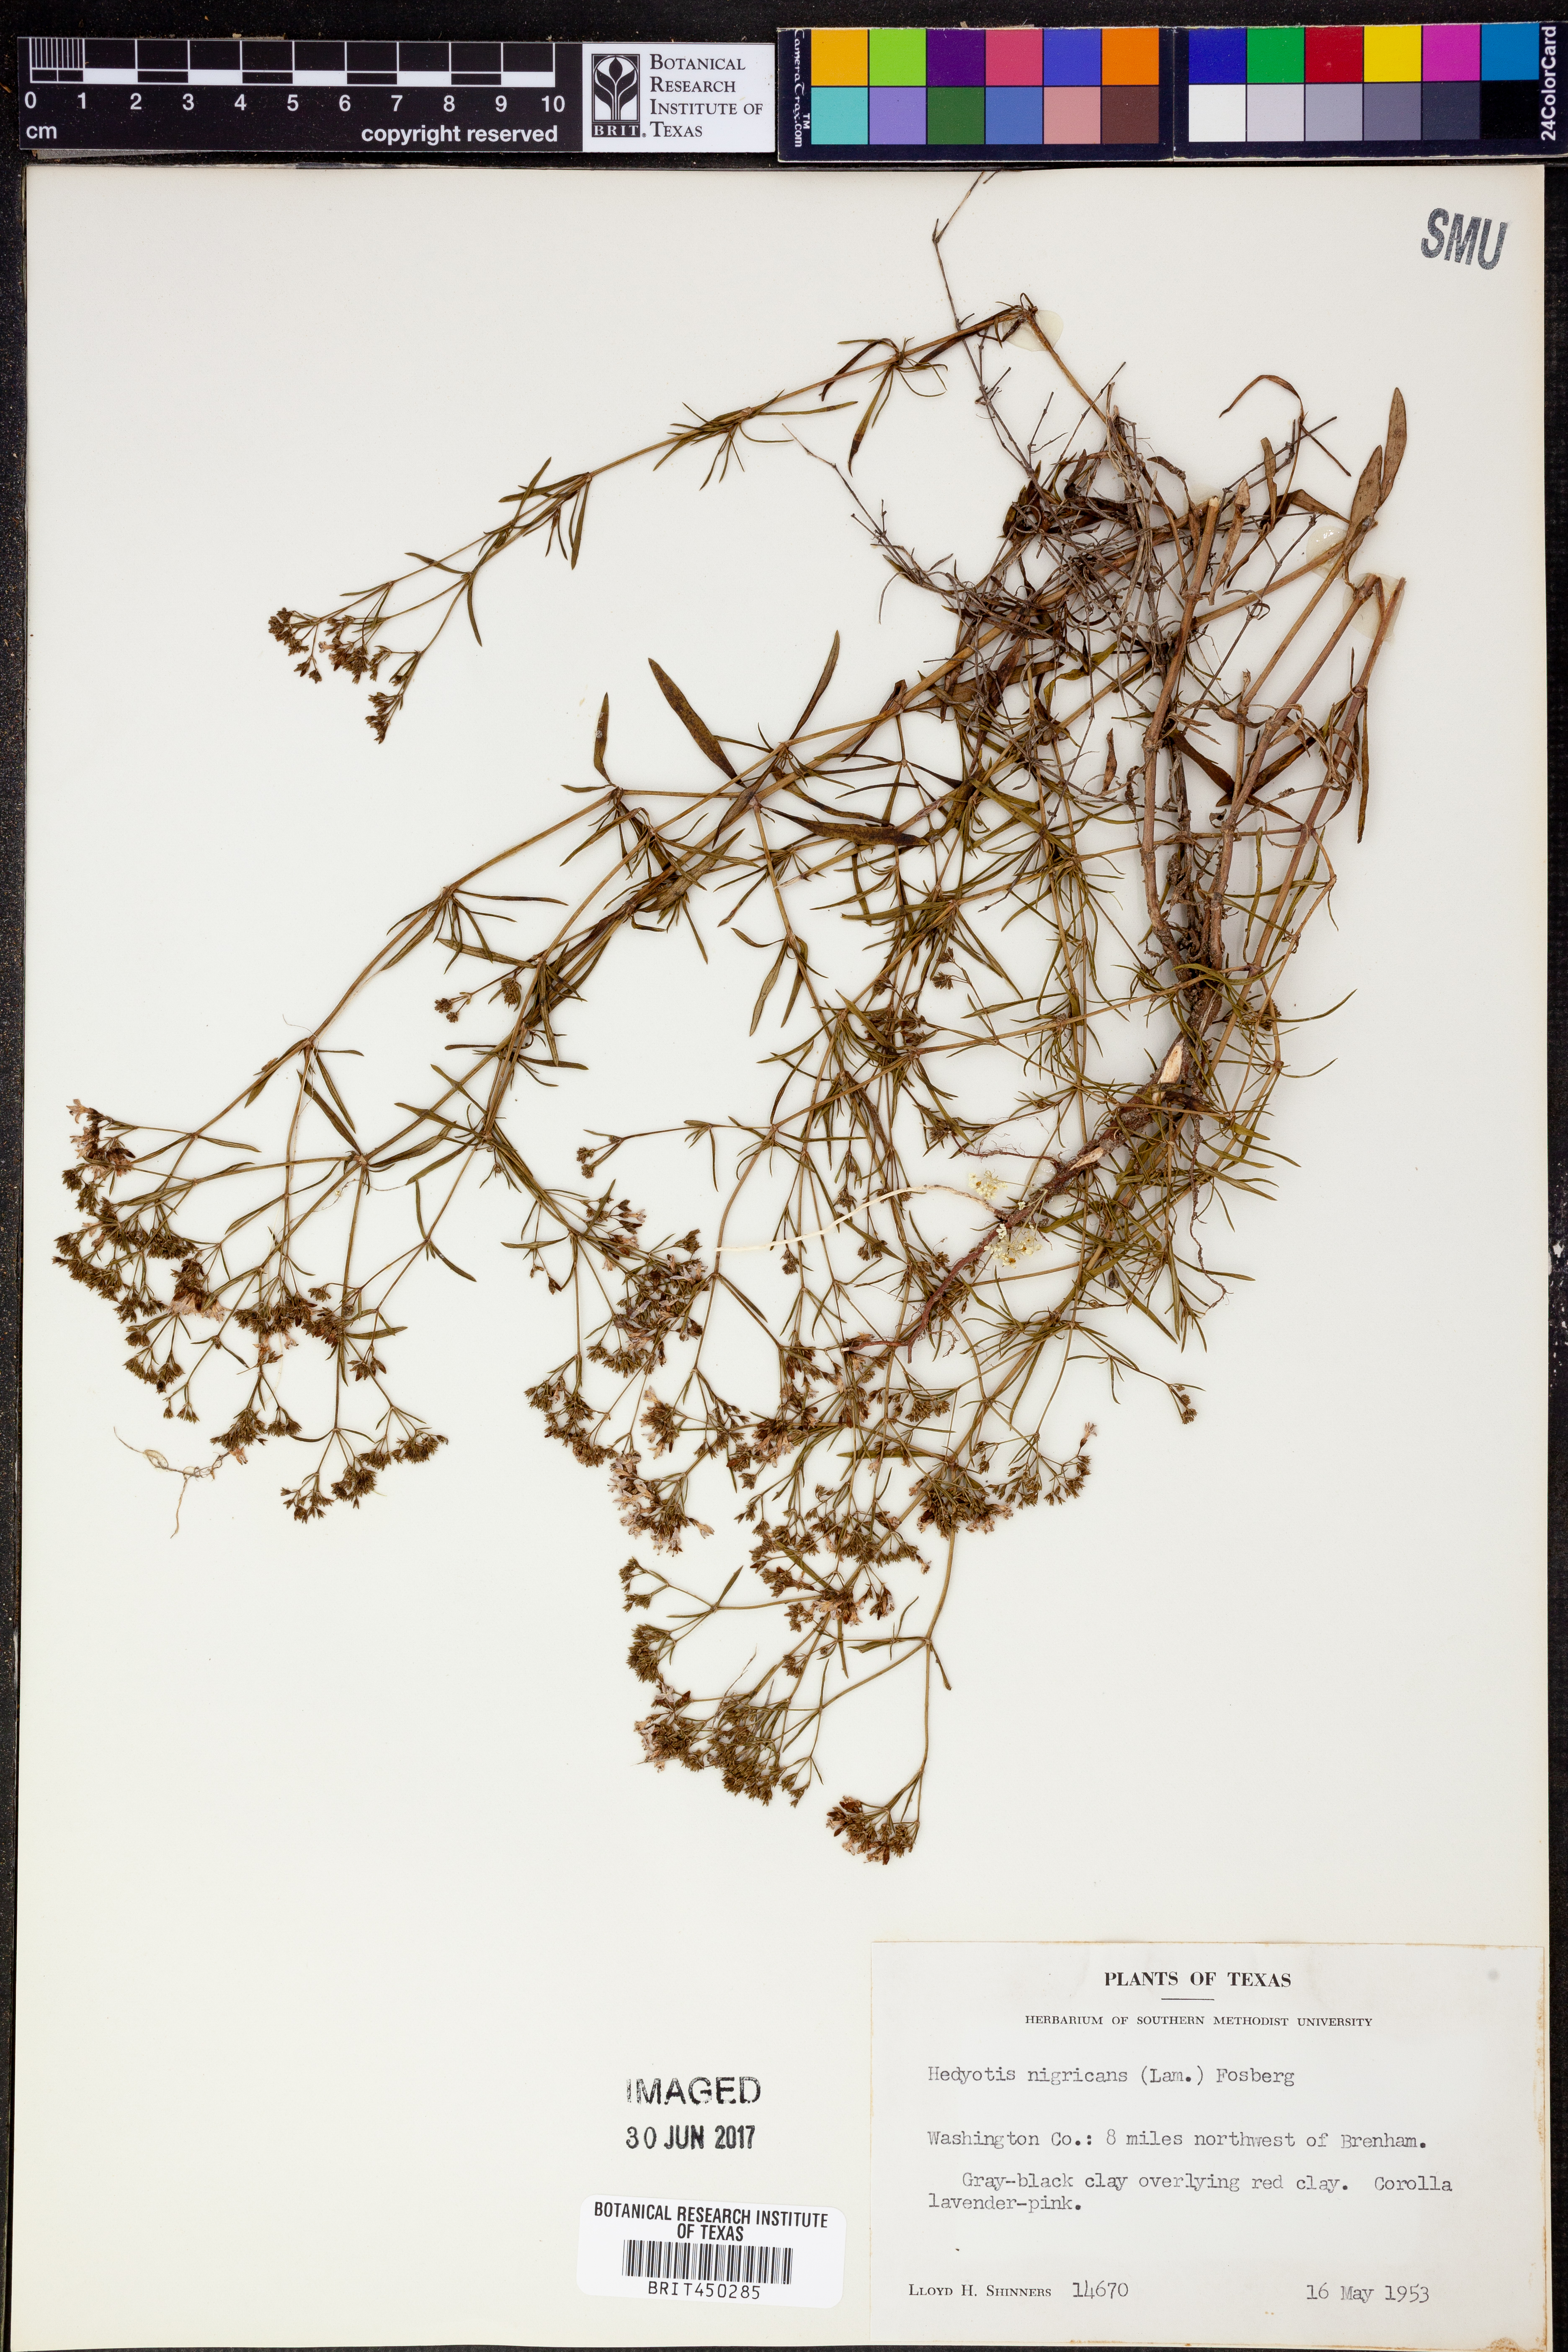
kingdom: Plantae
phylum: Tracheophyta
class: Magnoliopsida
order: Gentianales
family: Rubiaceae
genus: Stenaria
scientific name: Stenaria nigricans
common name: Diamondflowers
